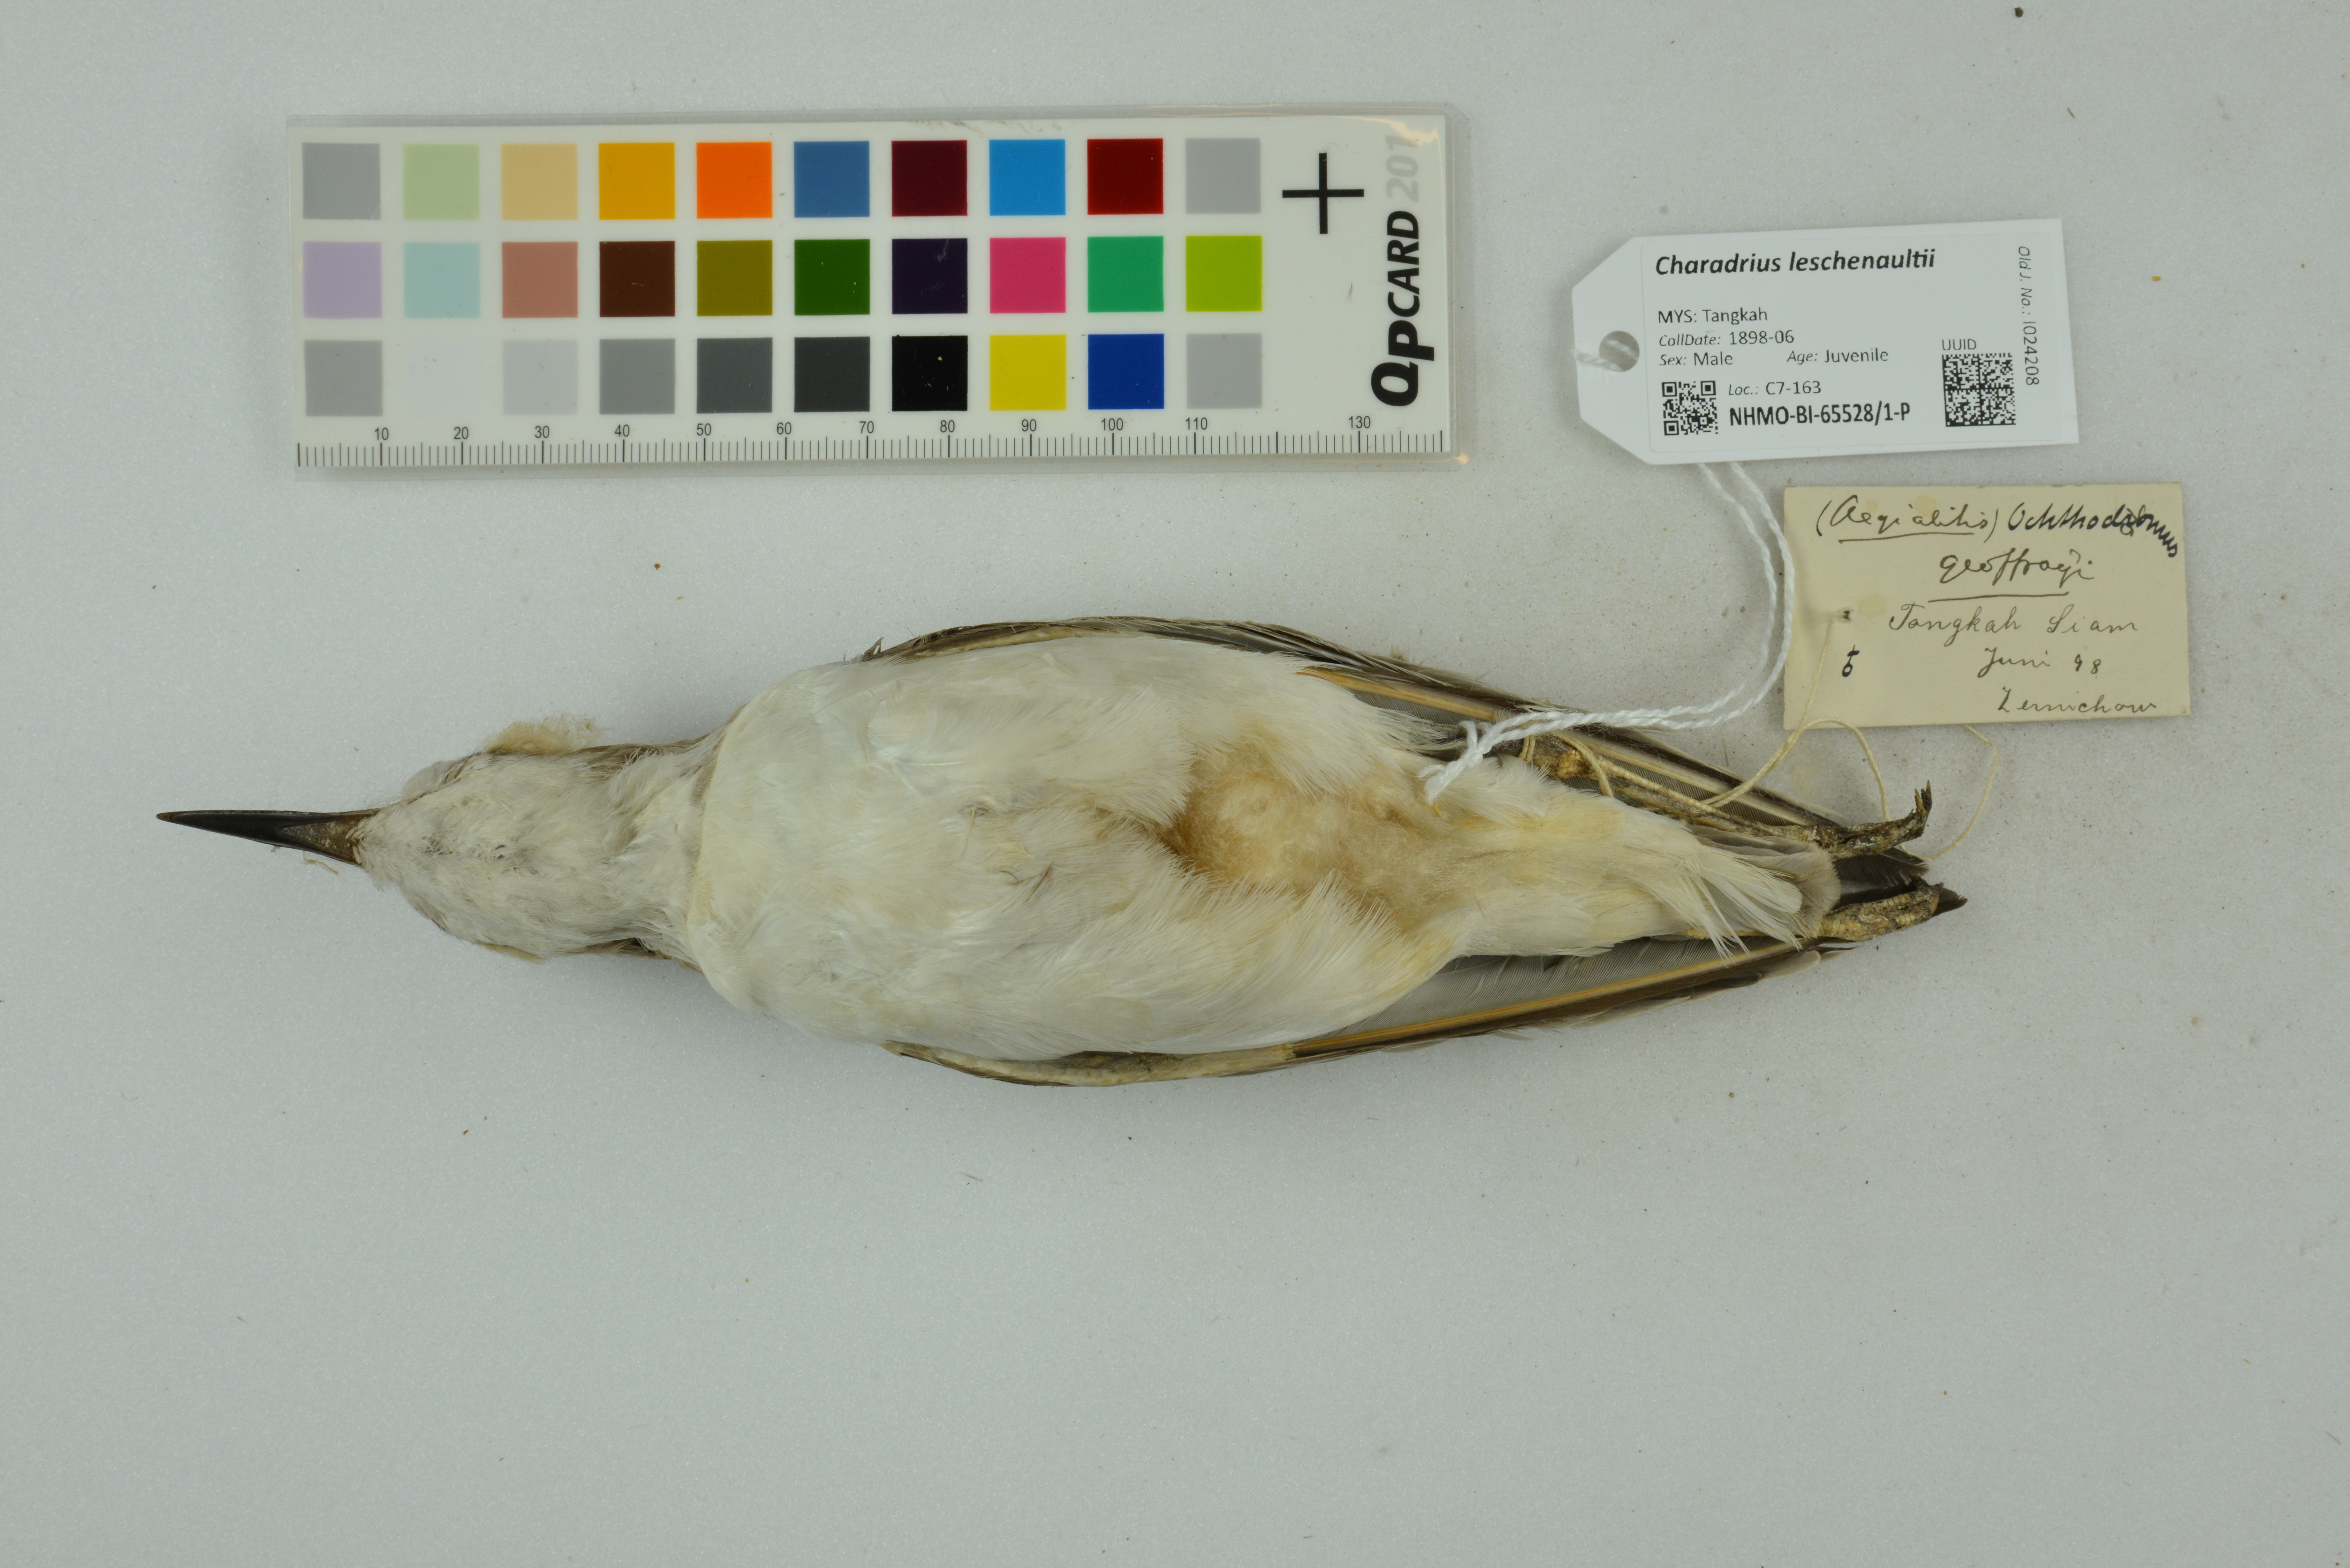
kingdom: Animalia
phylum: Chordata
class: Aves
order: Charadriiformes
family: Charadriidae
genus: Charadrius
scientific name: Charadrius leschenaultii
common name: Greater sand plover
